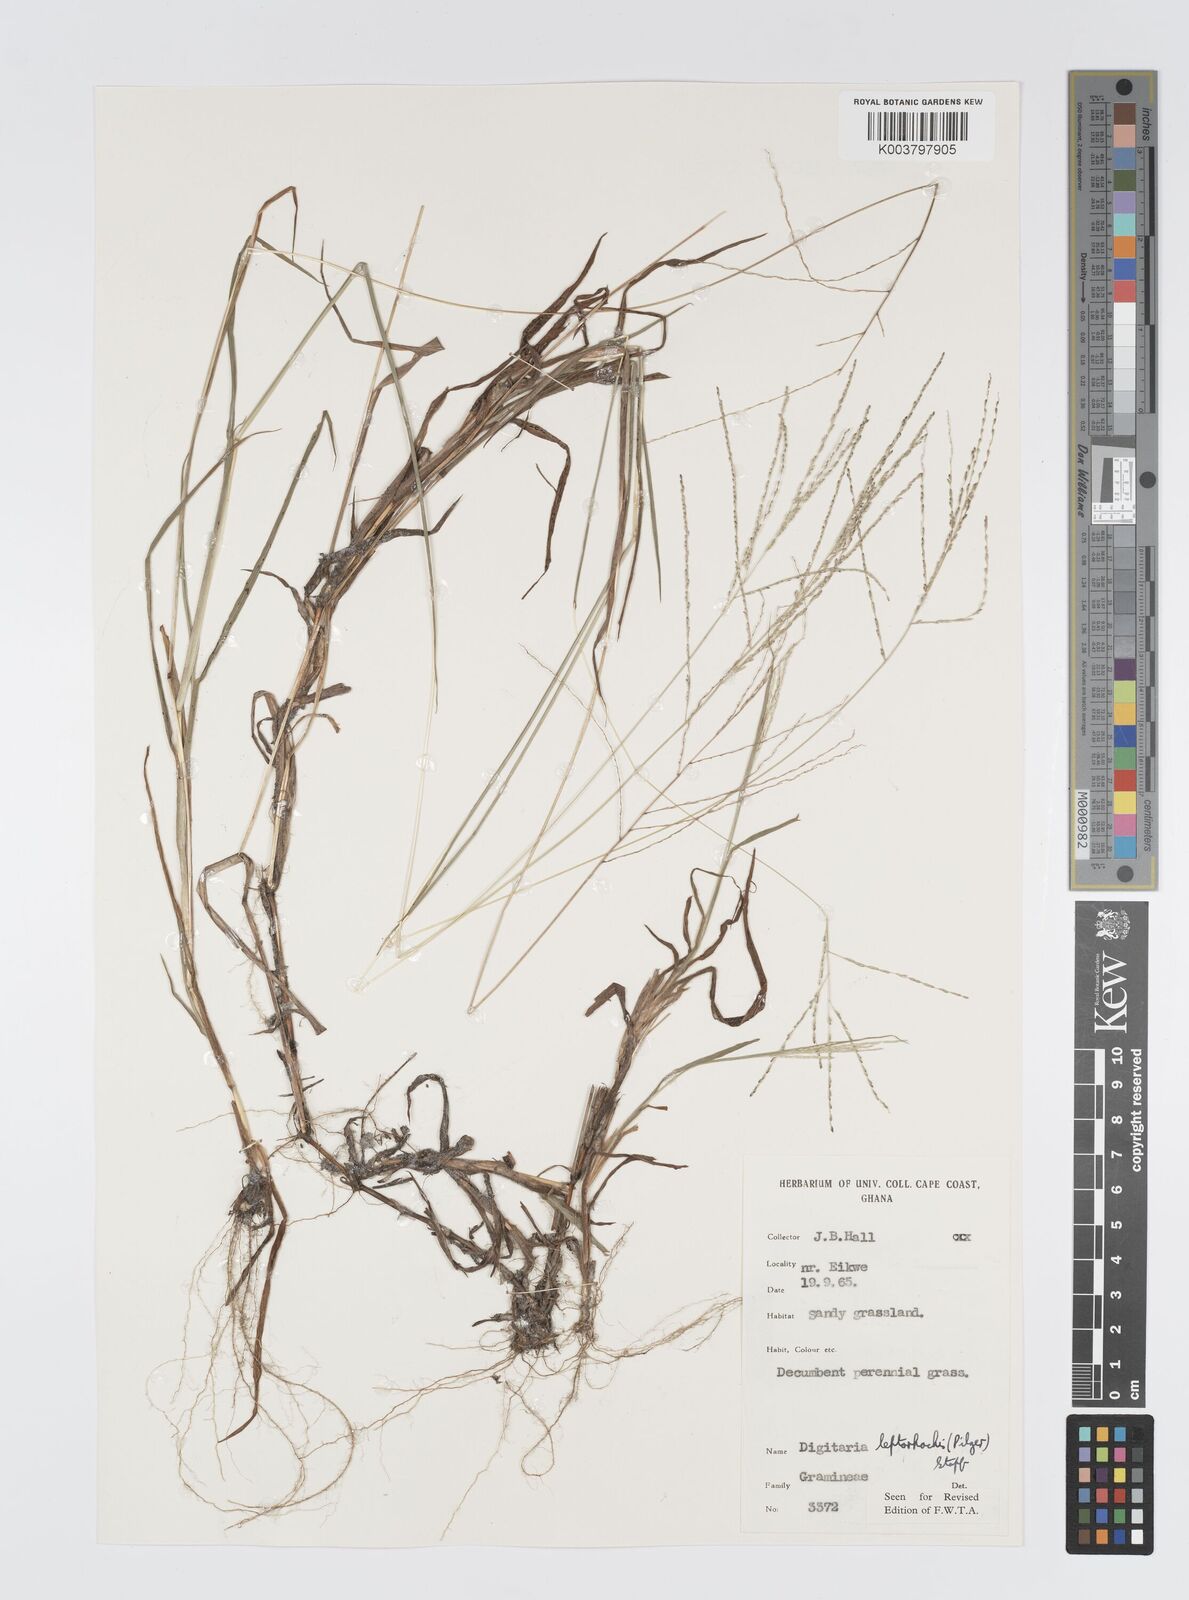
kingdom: Plantae
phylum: Tracheophyta
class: Liliopsida
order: Poales
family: Poaceae
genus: Digitaria
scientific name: Digitaria leptorhachis
